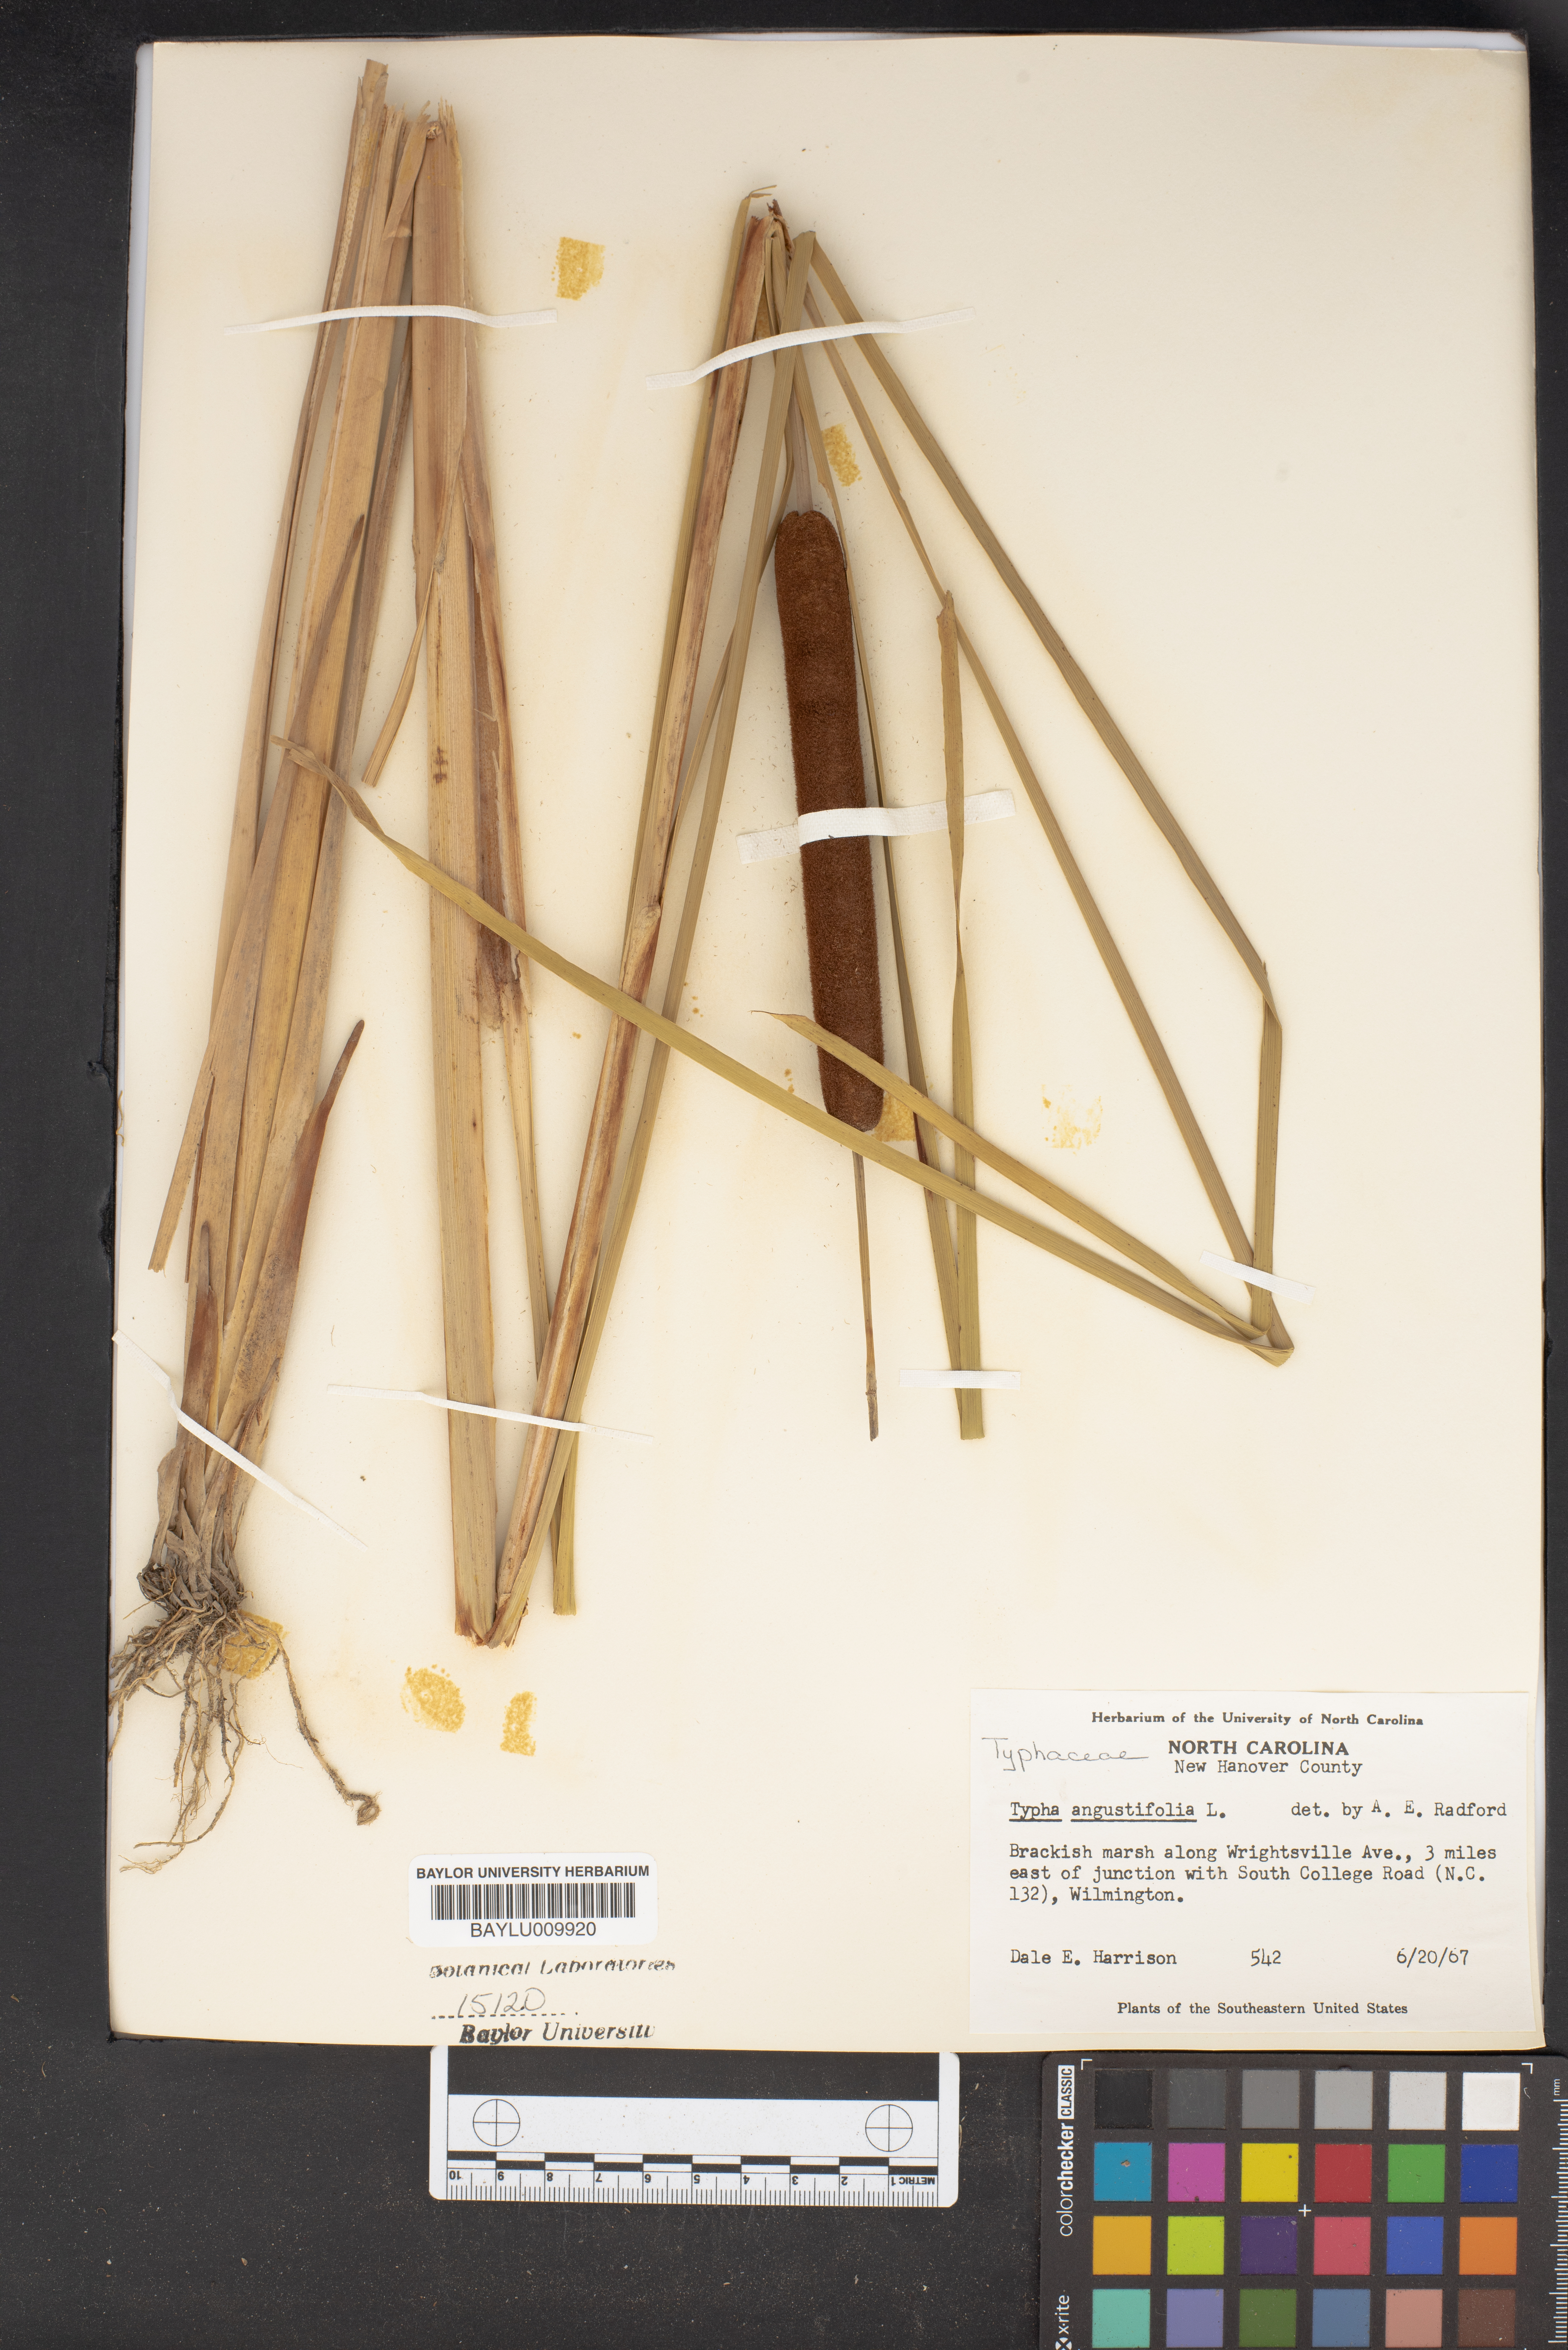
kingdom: Plantae
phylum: Tracheophyta
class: Liliopsida
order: Poales
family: Typhaceae
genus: Typha
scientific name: Typha angustifolia
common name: Lesser bulrush
